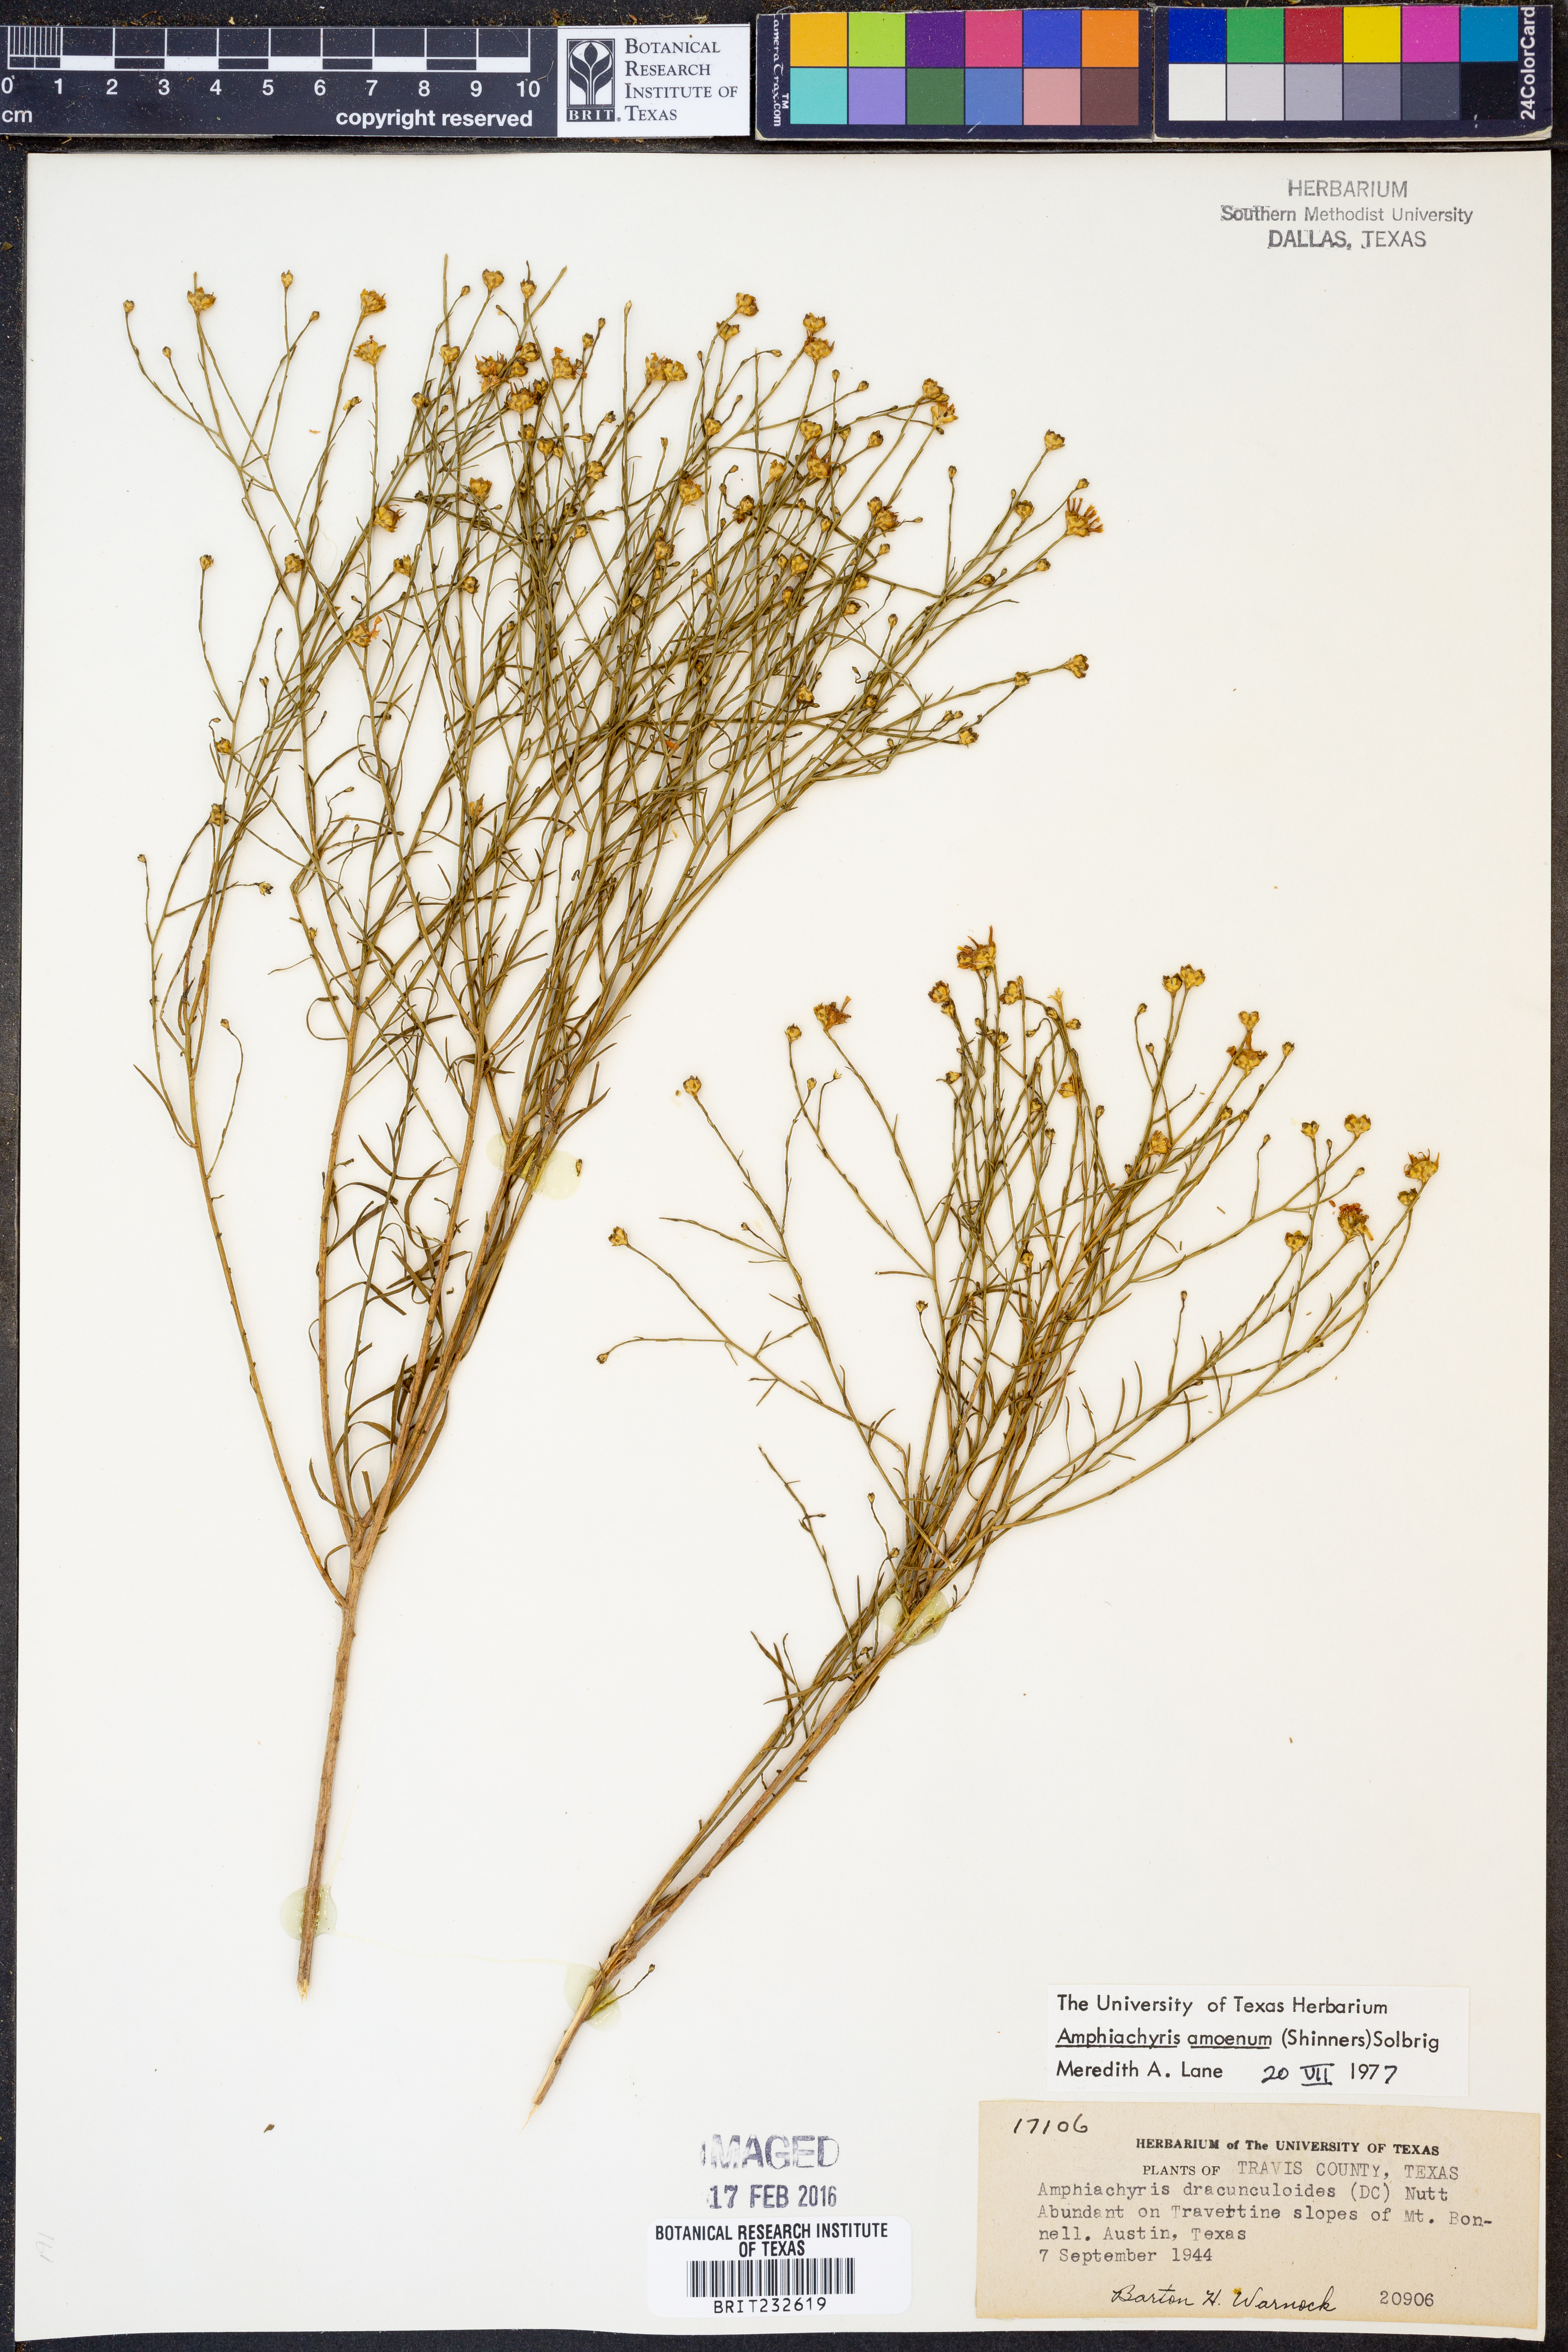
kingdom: Plantae
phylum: Tracheophyta
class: Magnoliopsida
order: Asterales
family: Asteraceae
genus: Amphiachyris
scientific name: Amphiachyris amoenum
